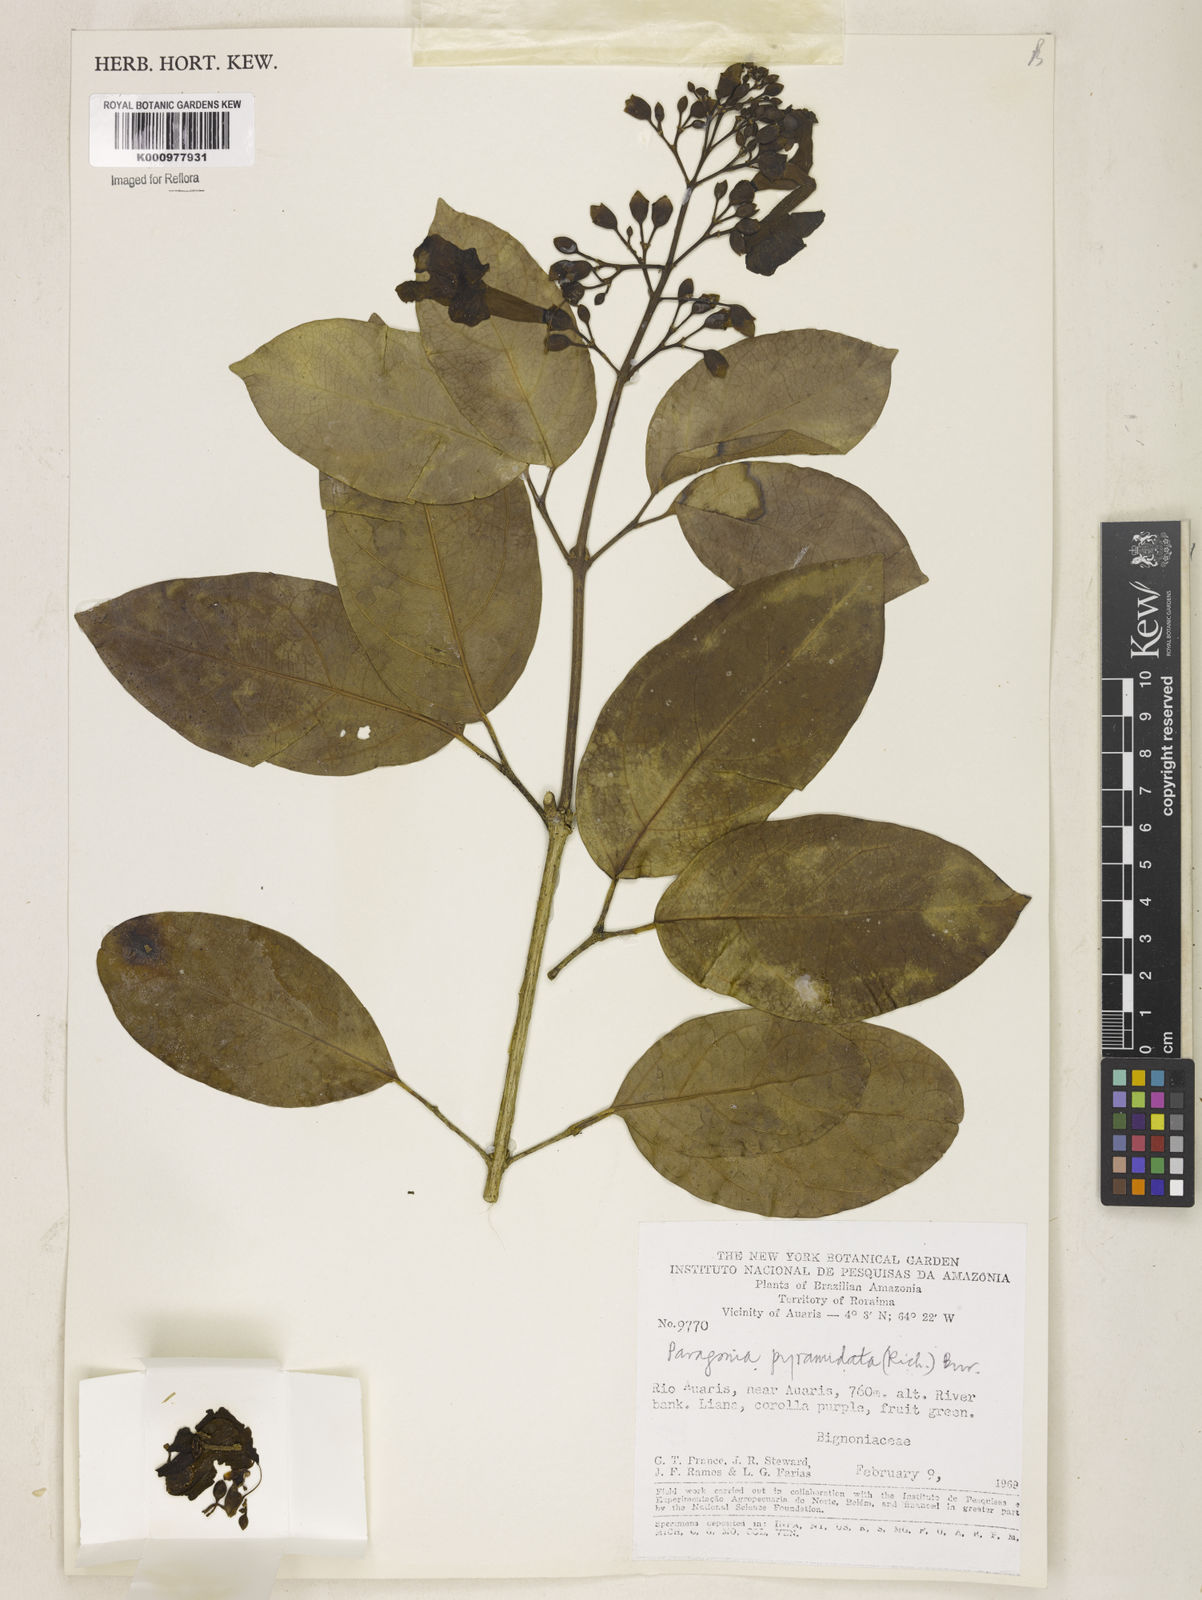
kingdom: Plantae
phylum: Tracheophyta
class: Magnoliopsida
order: Lamiales
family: Bignoniaceae
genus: Tanaecium
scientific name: Tanaecium pyramidatum
